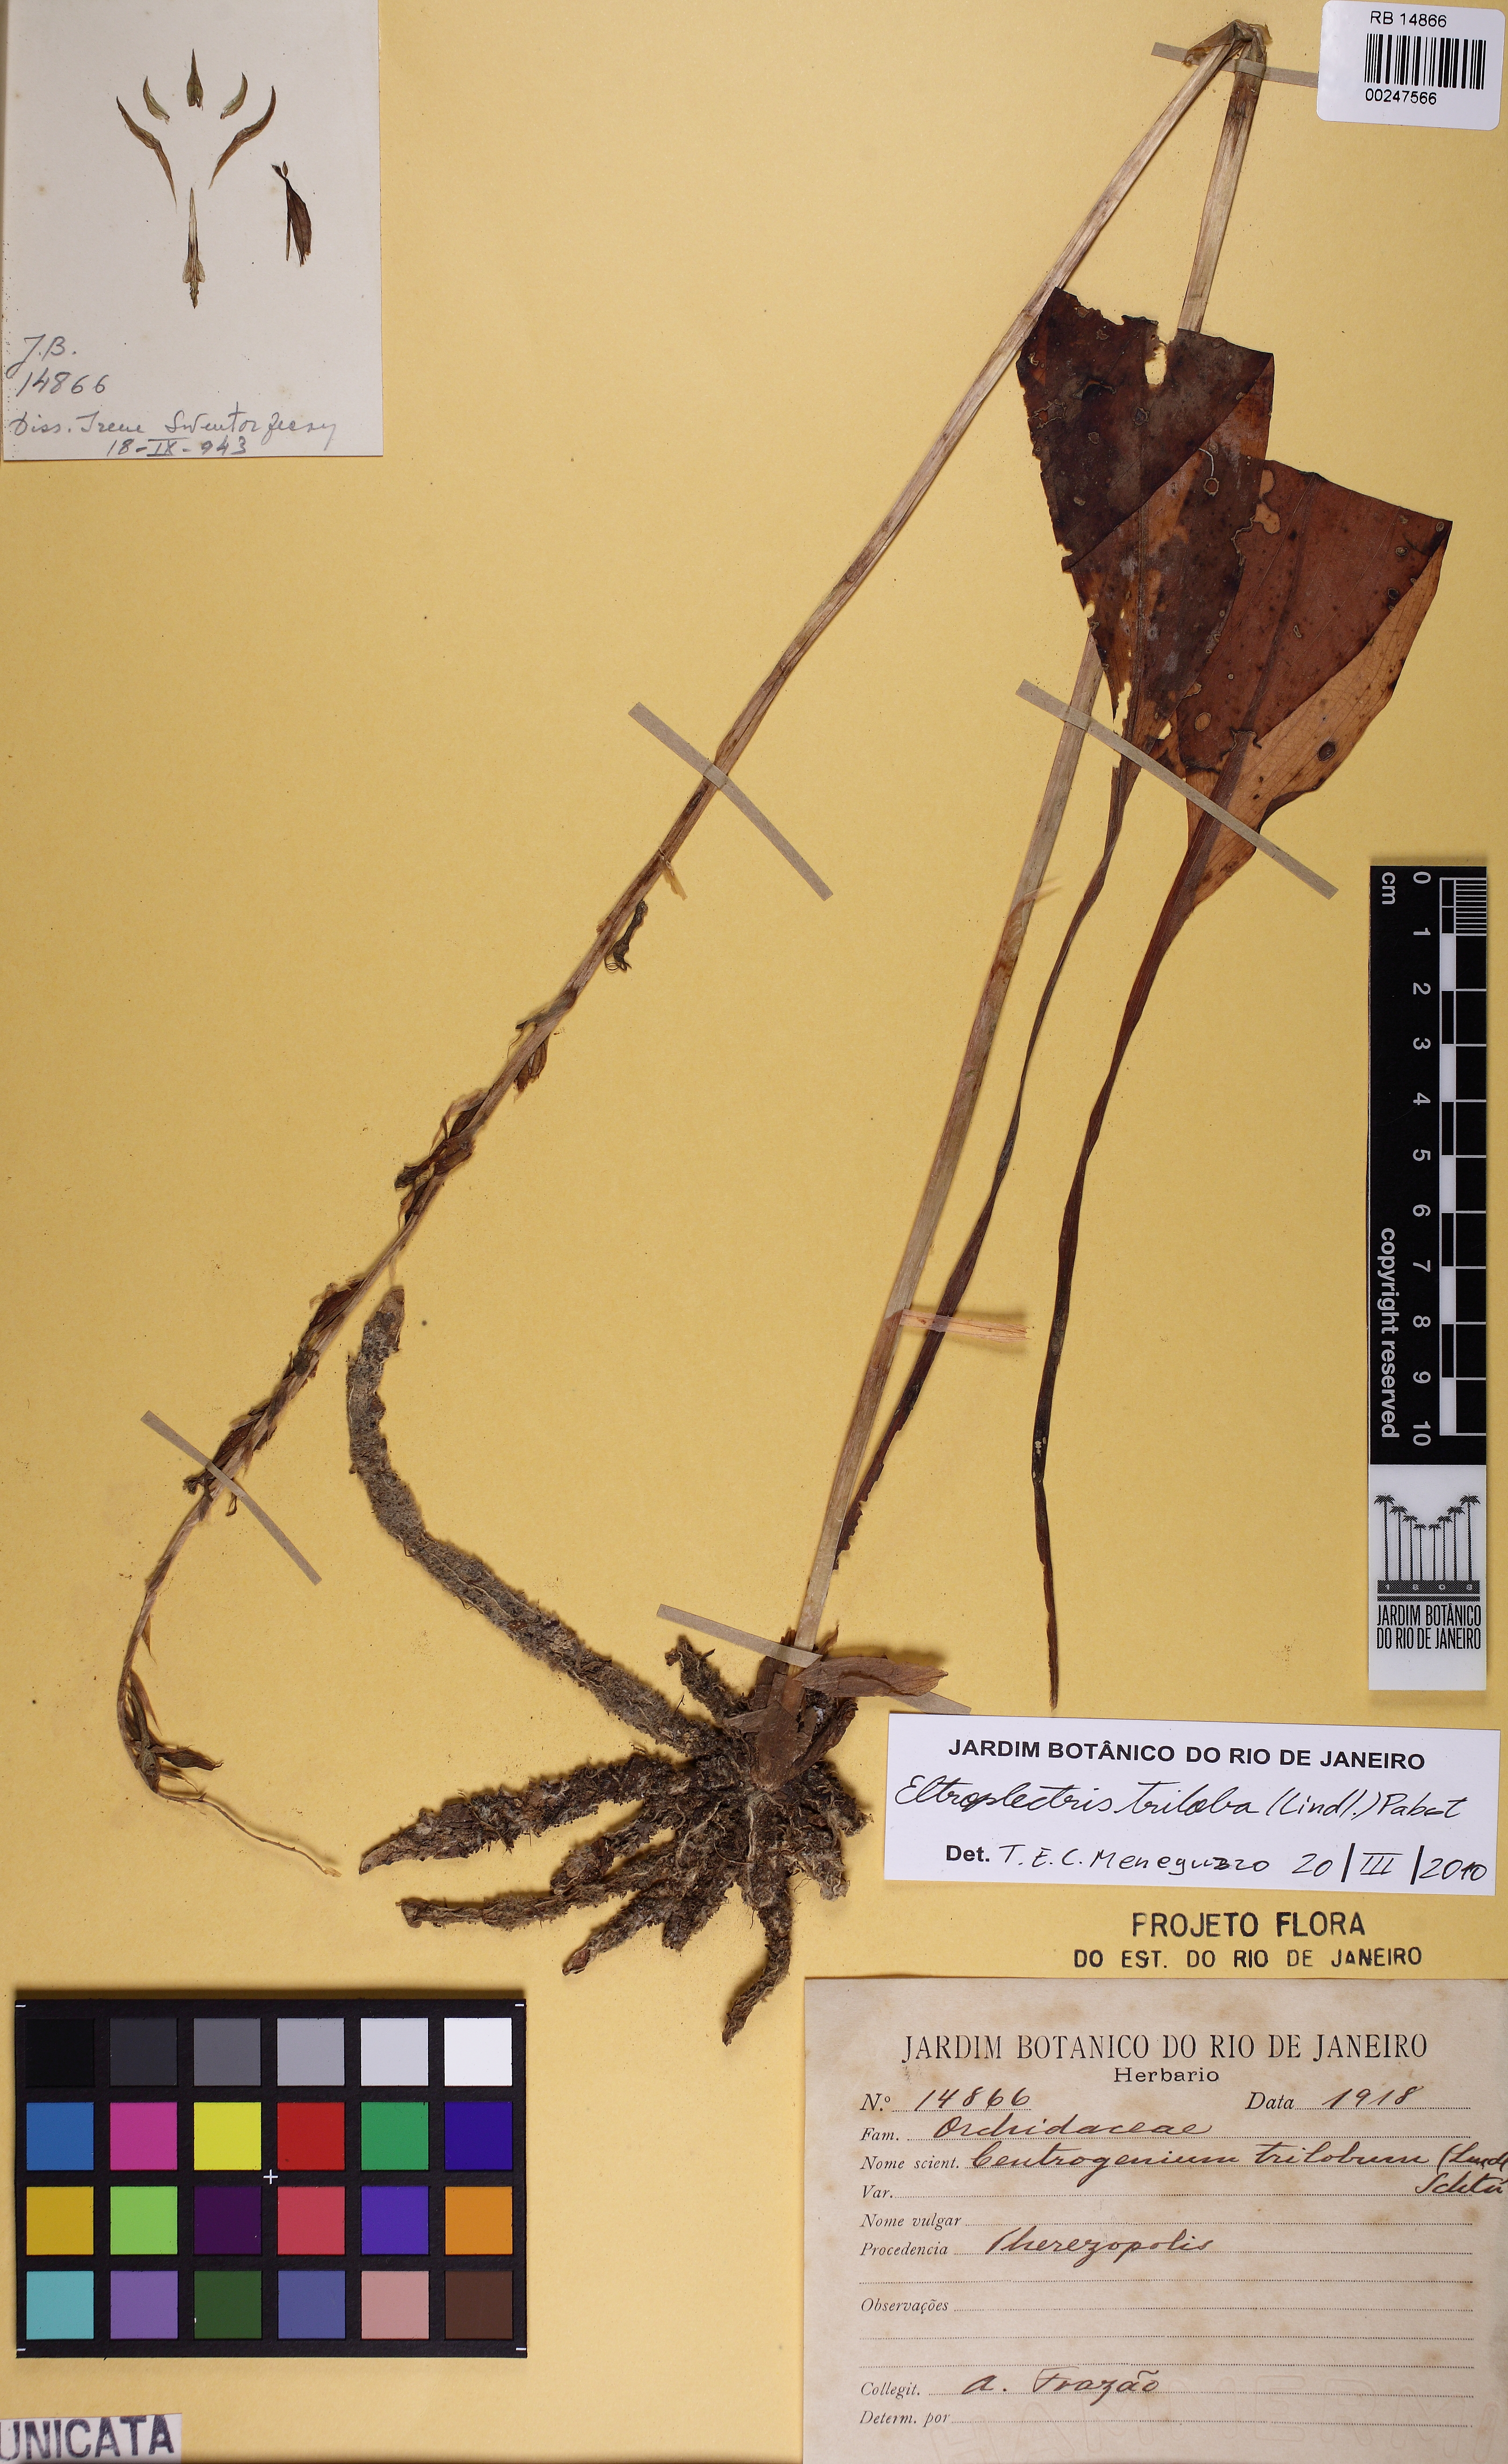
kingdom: Plantae
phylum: Tracheophyta
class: Liliopsida
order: Asparagales
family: Orchidaceae
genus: Eltroplectris
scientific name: Eltroplectris triloba
